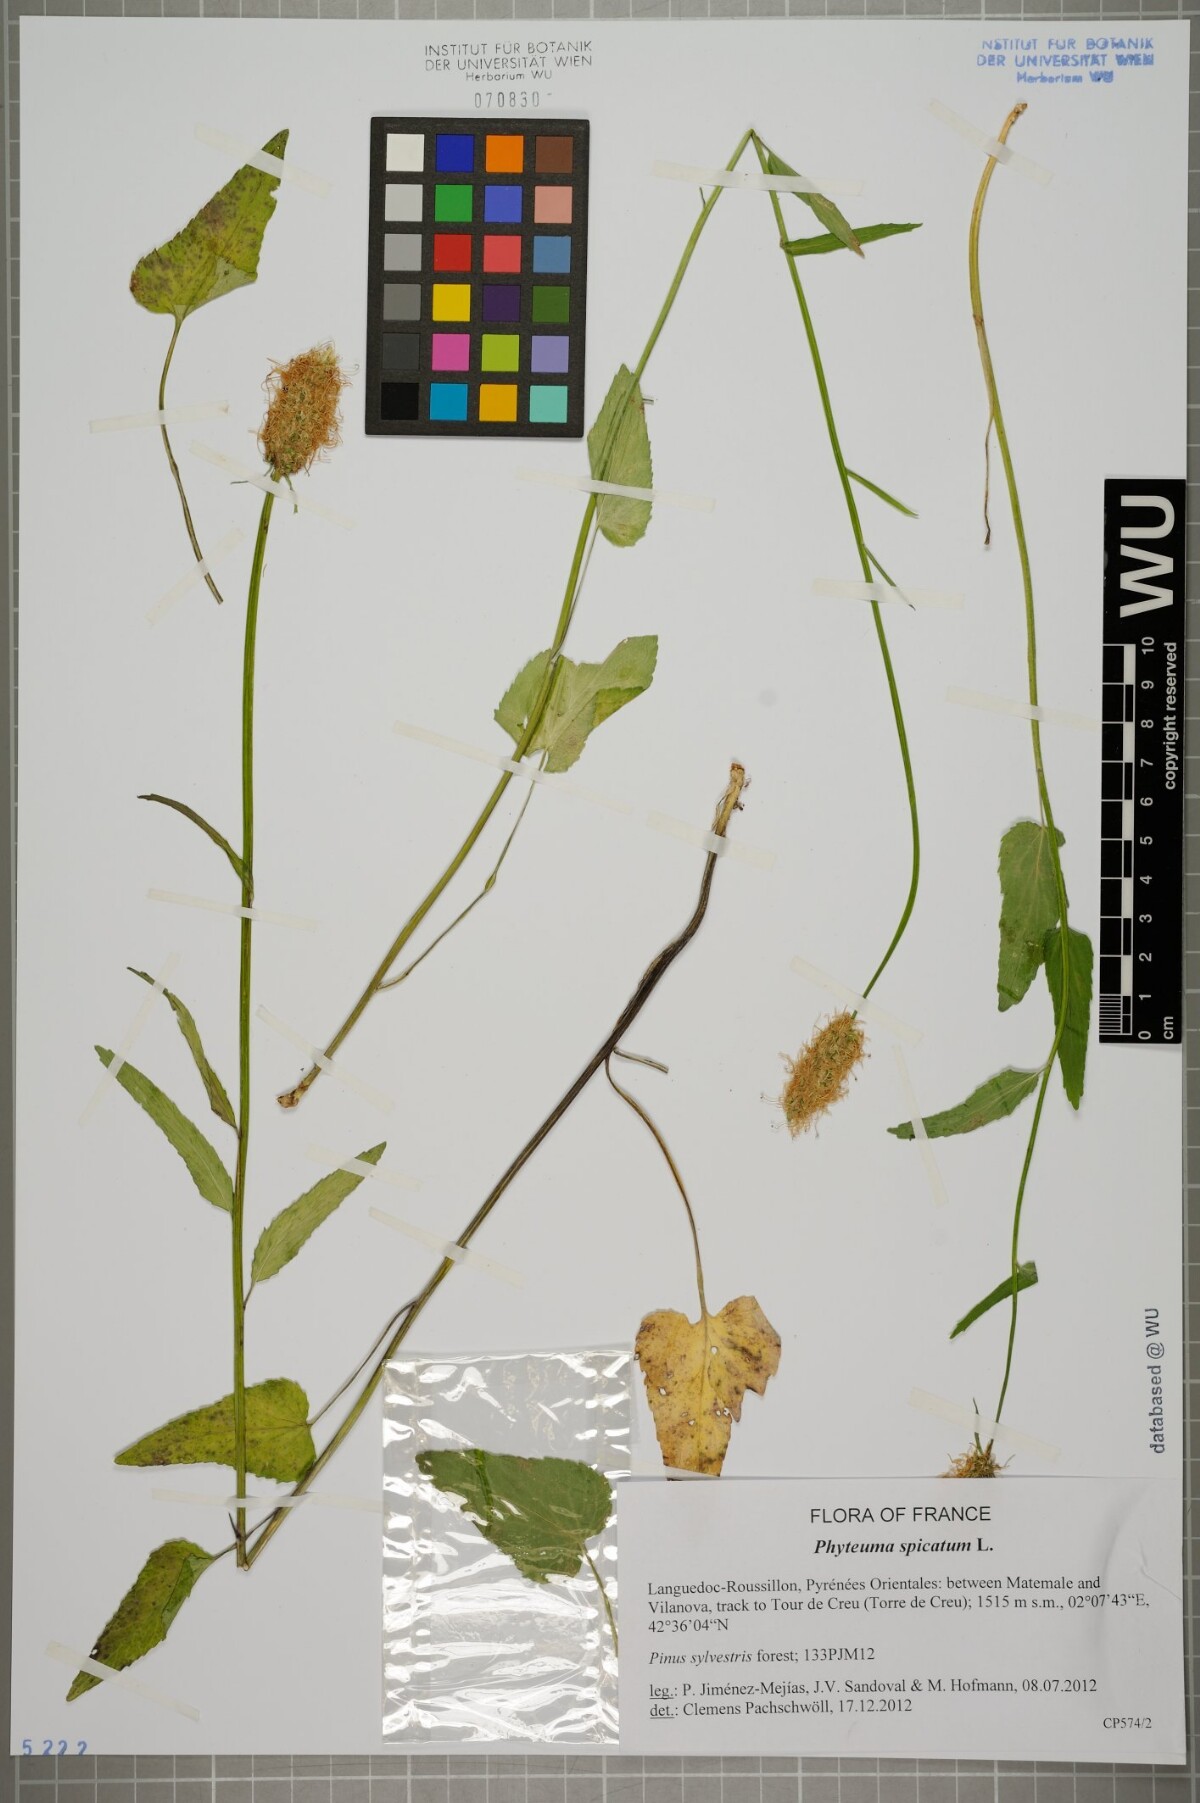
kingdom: Plantae
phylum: Tracheophyta
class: Magnoliopsida
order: Asterales
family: Campanulaceae
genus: Phyteuma
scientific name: Phyteuma spicatum
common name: Spiked rampion
